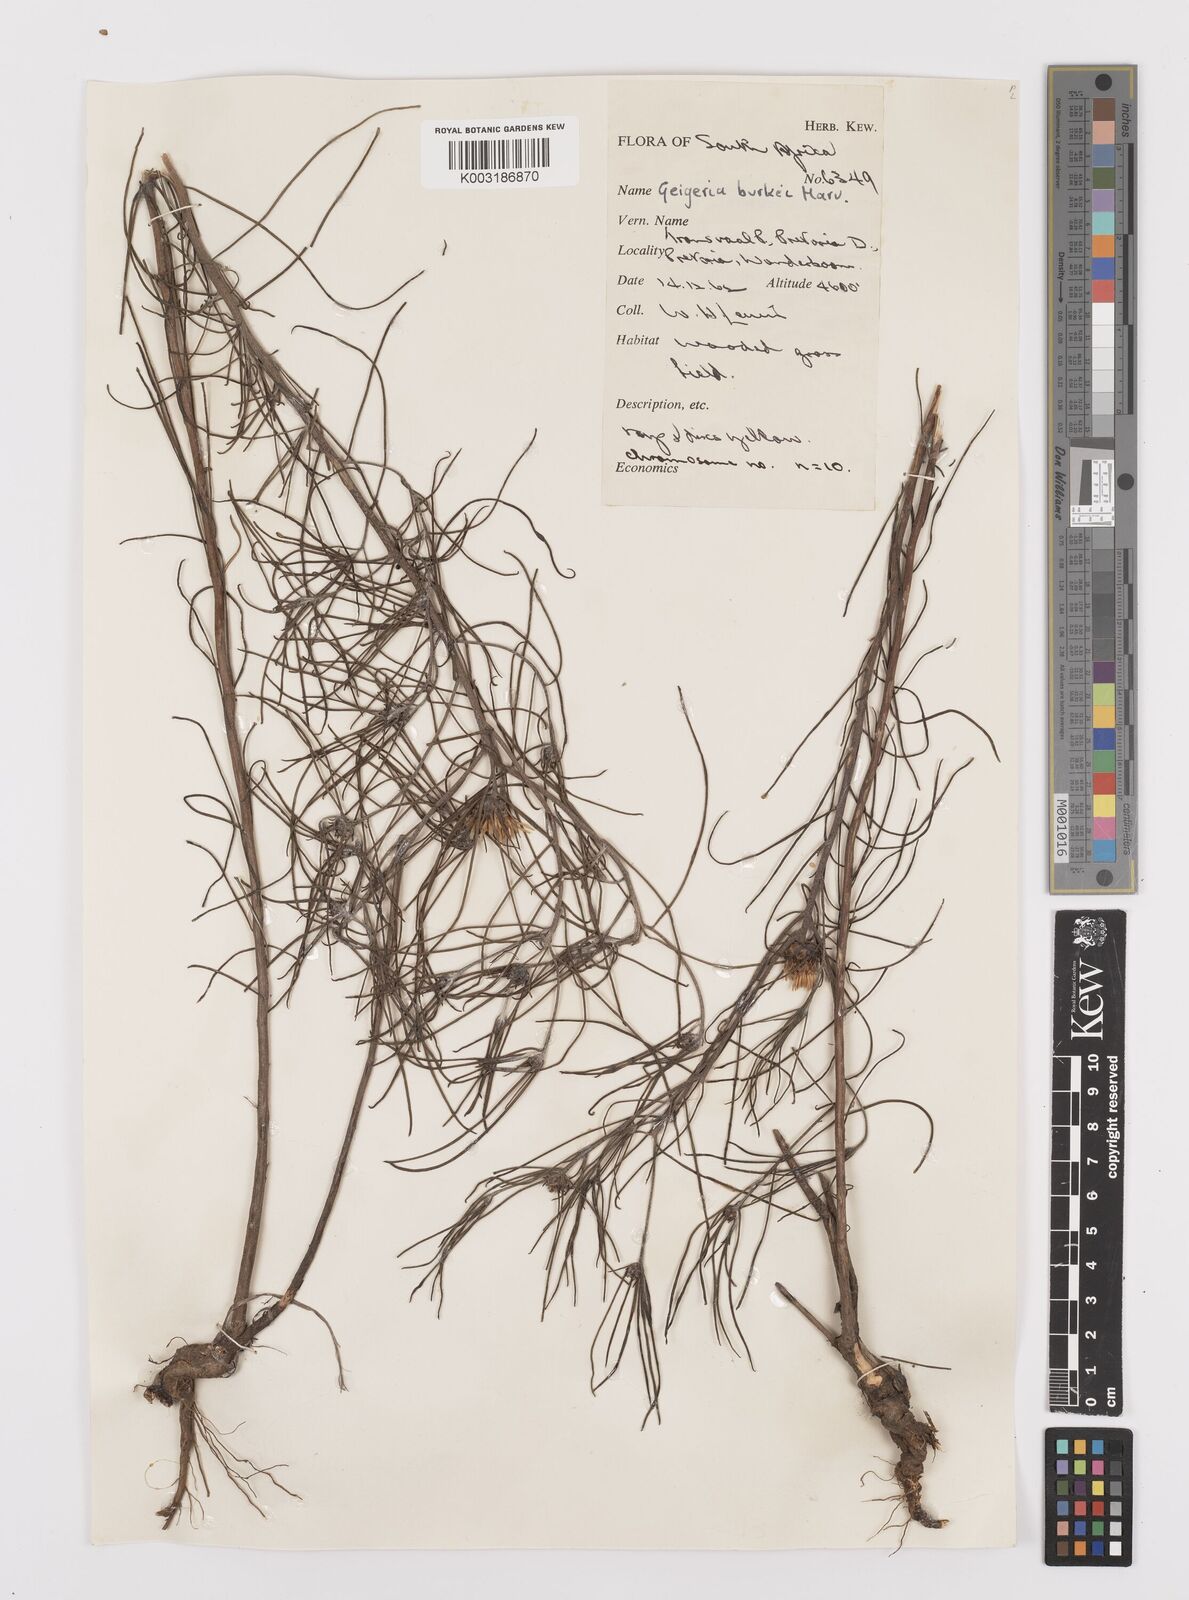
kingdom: Plantae
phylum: Tracheophyta
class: Magnoliopsida
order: Asterales
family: Asteraceae
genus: Geigeria
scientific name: Geigeria burkei
